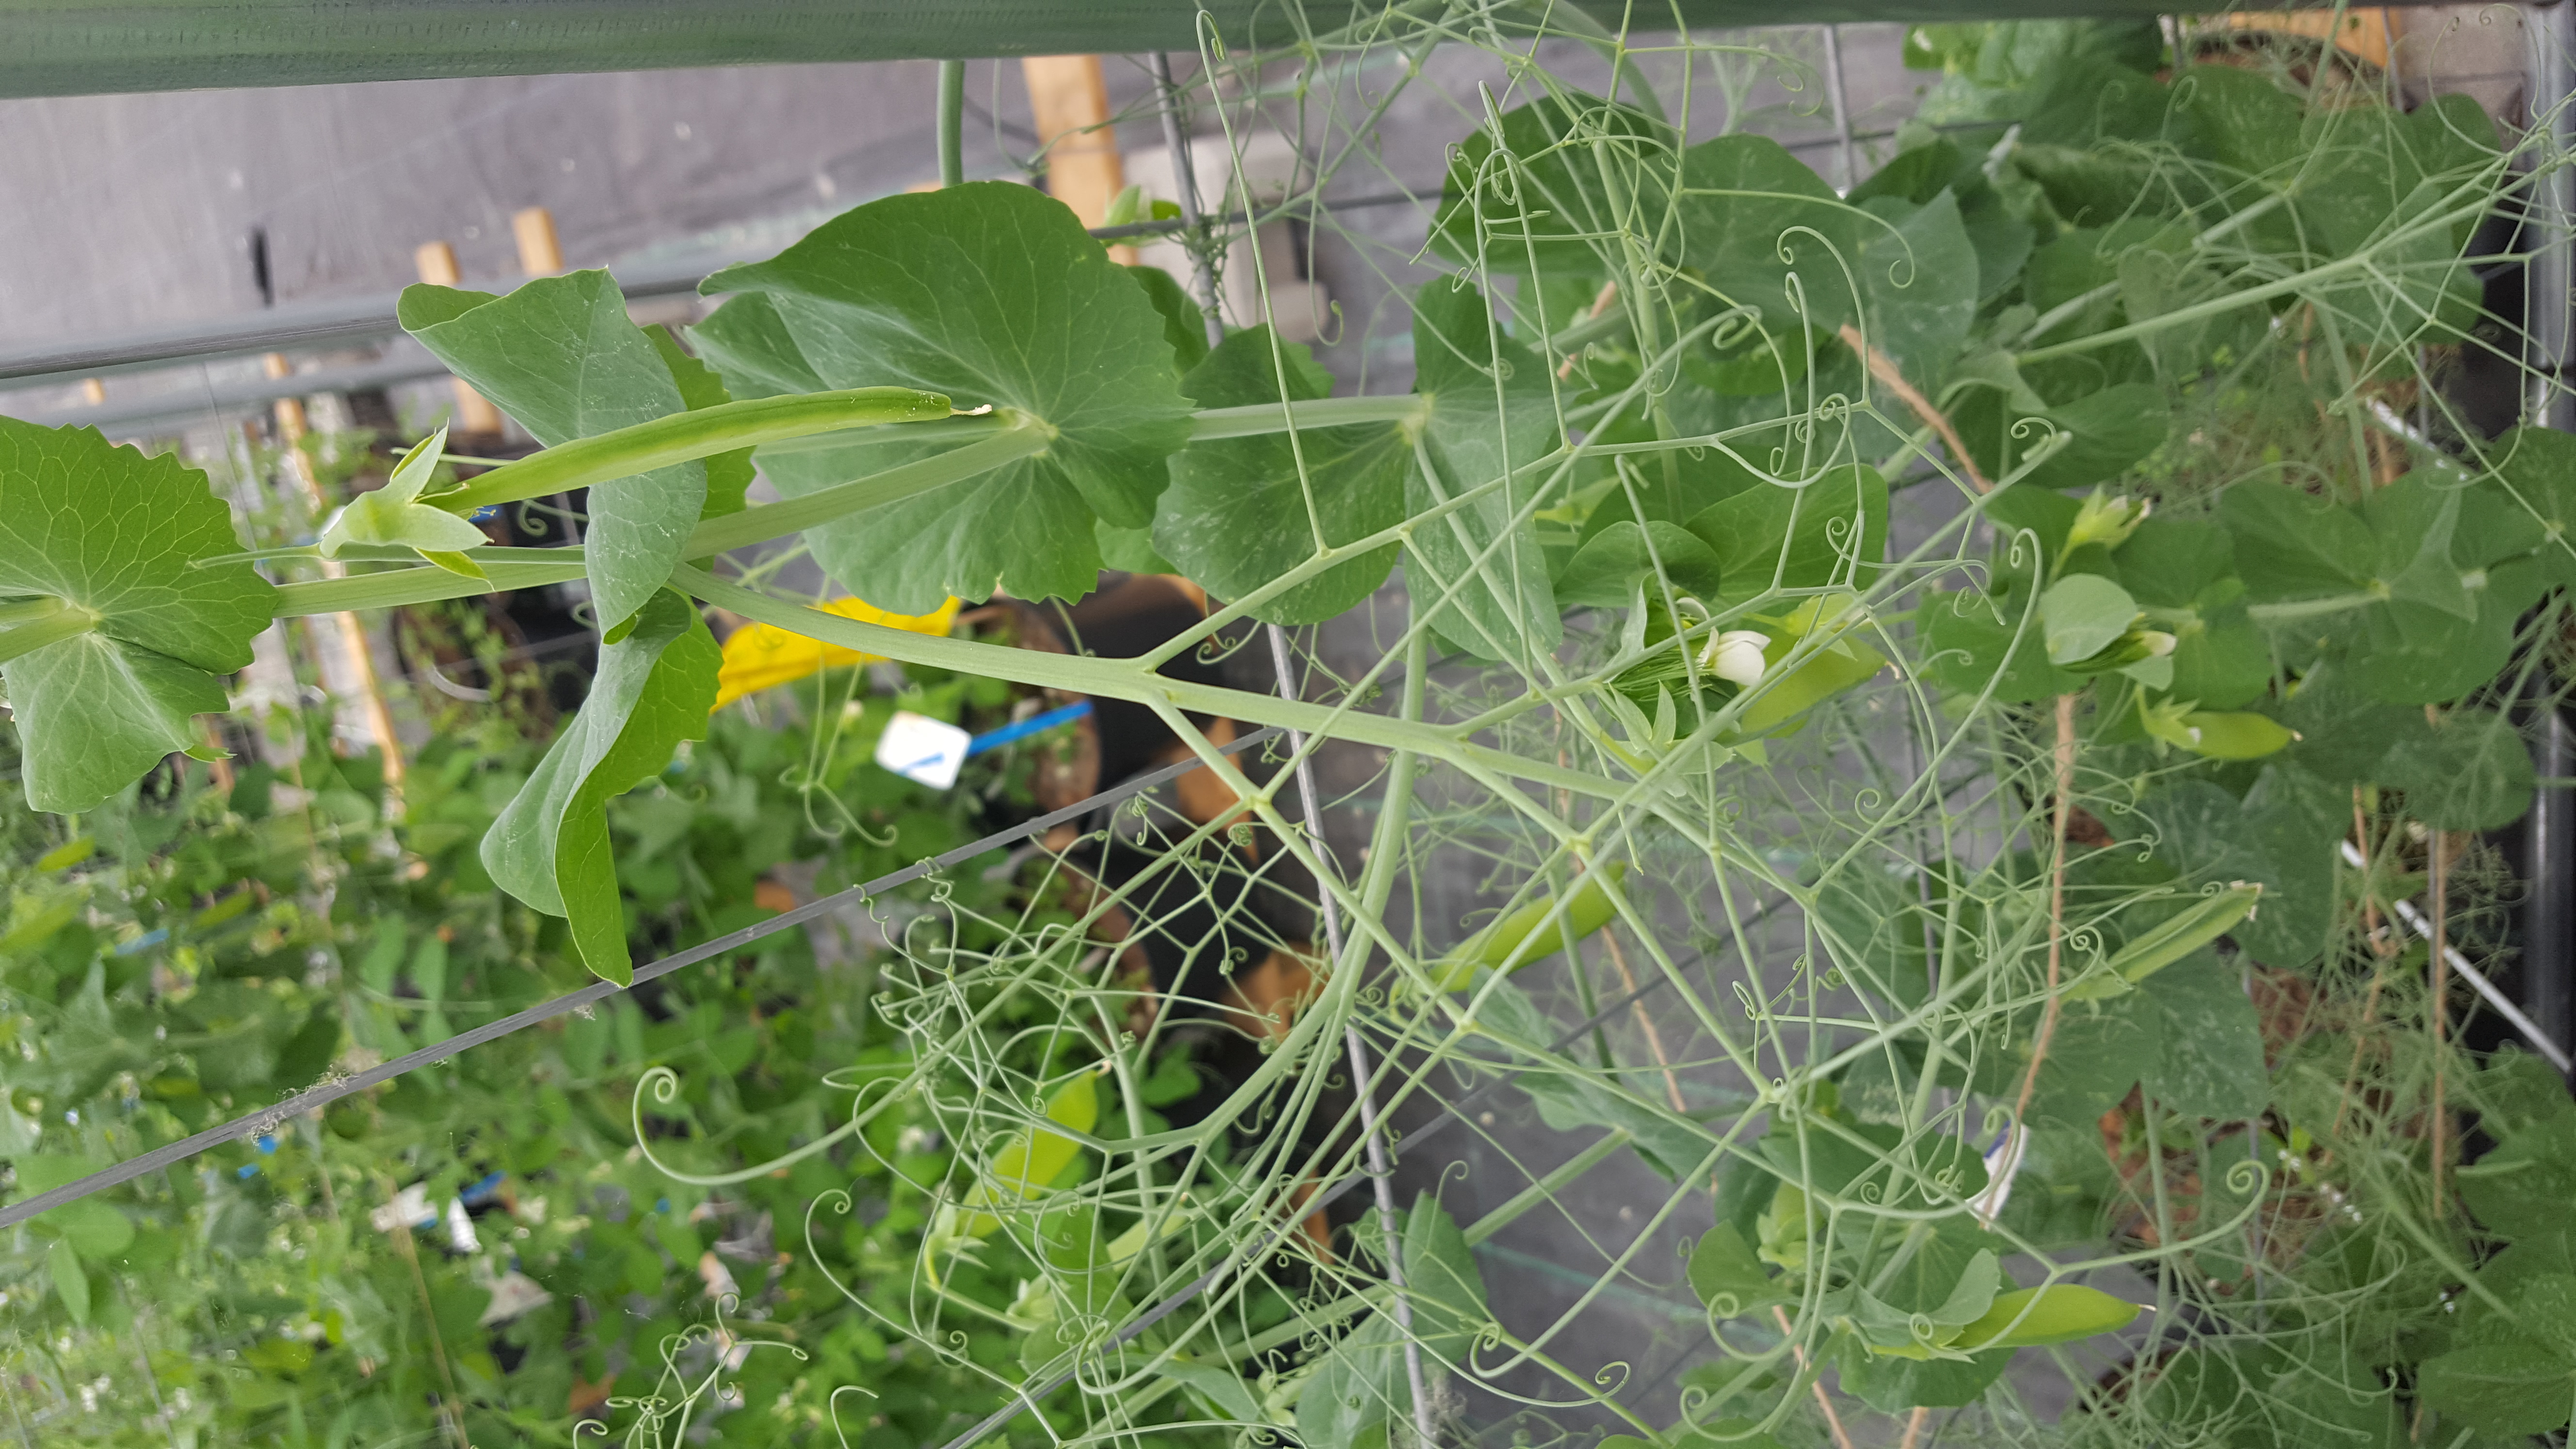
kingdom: Plantae
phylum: Tracheophyta
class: Magnoliopsida
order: Fabales
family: Fabaceae
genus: Lathyrus
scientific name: Lathyrus oleraceus
